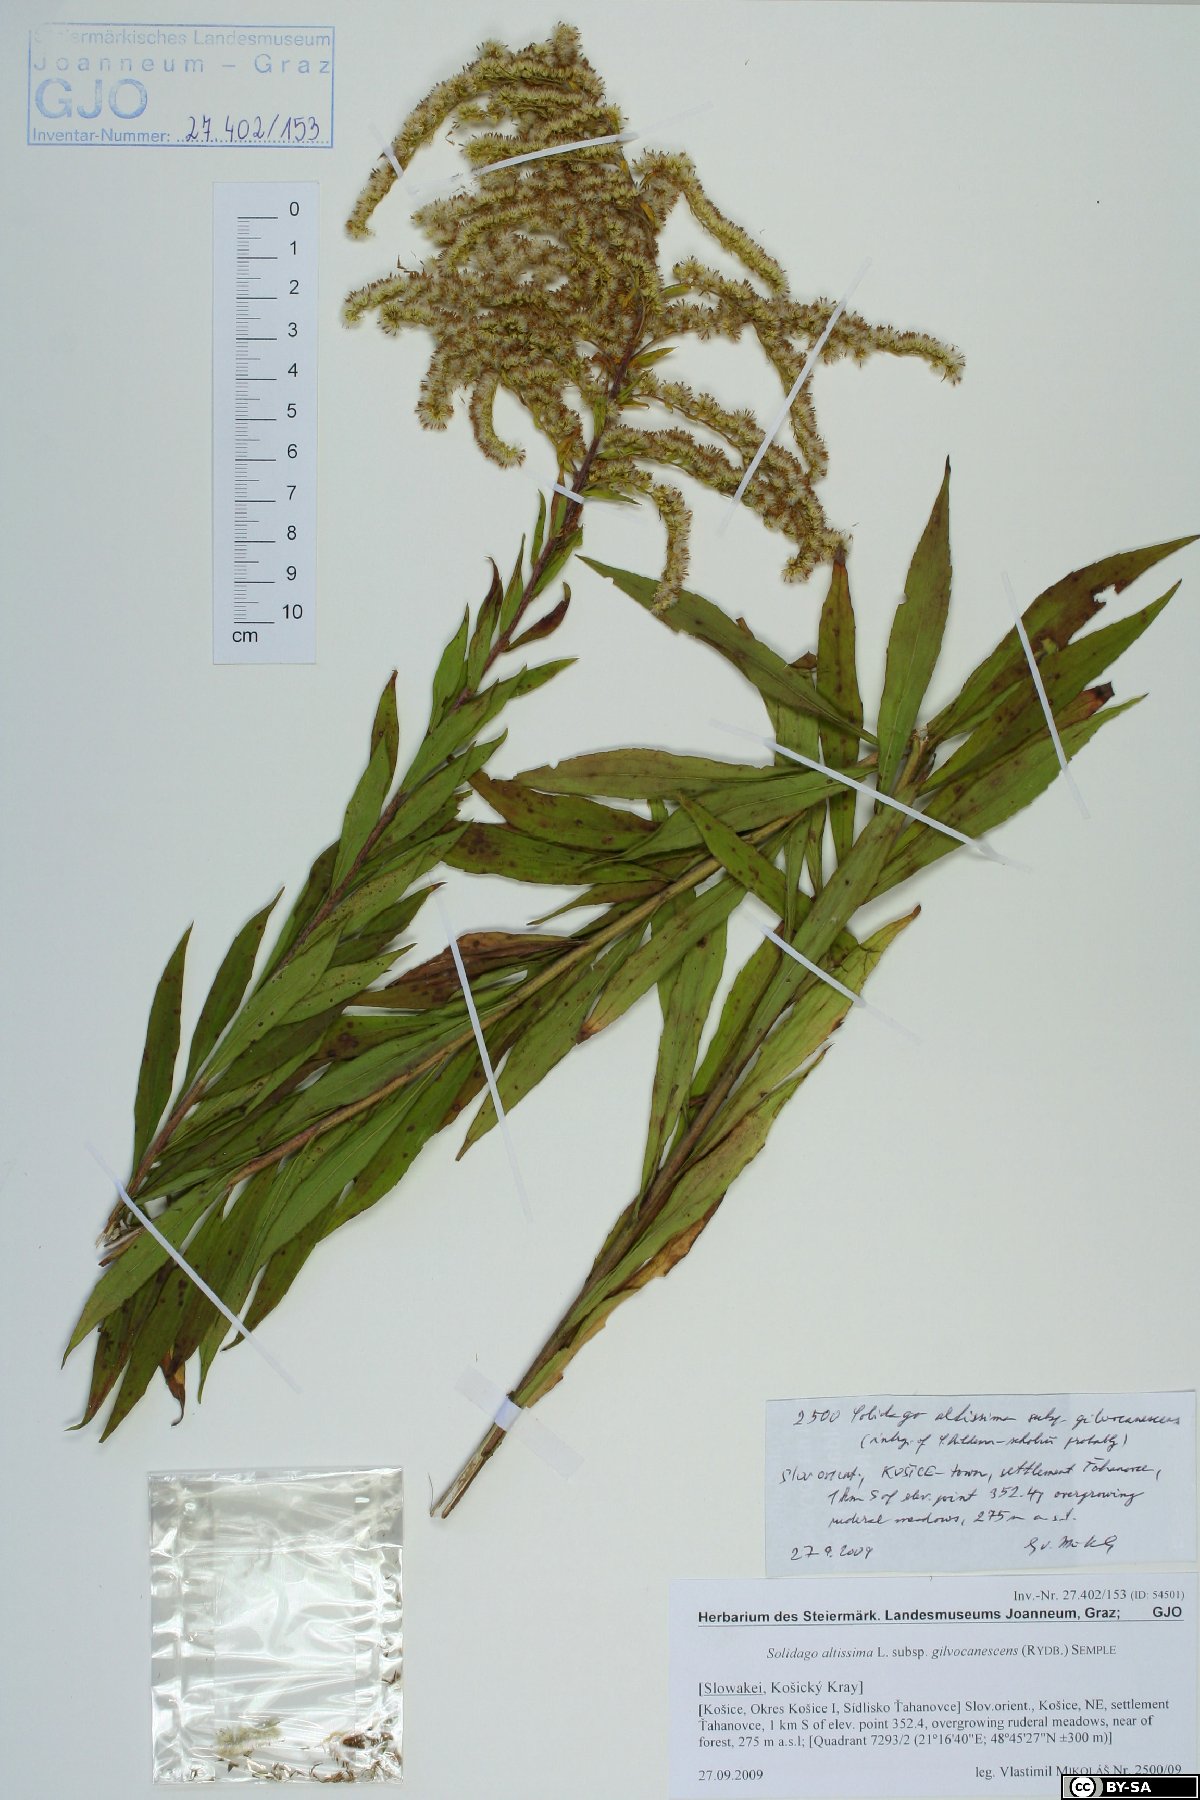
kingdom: Plantae
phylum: Tracheophyta
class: Magnoliopsida
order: Asterales
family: Asteraceae
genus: Solidago
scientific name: Solidago altissima
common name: Late goldenrod
